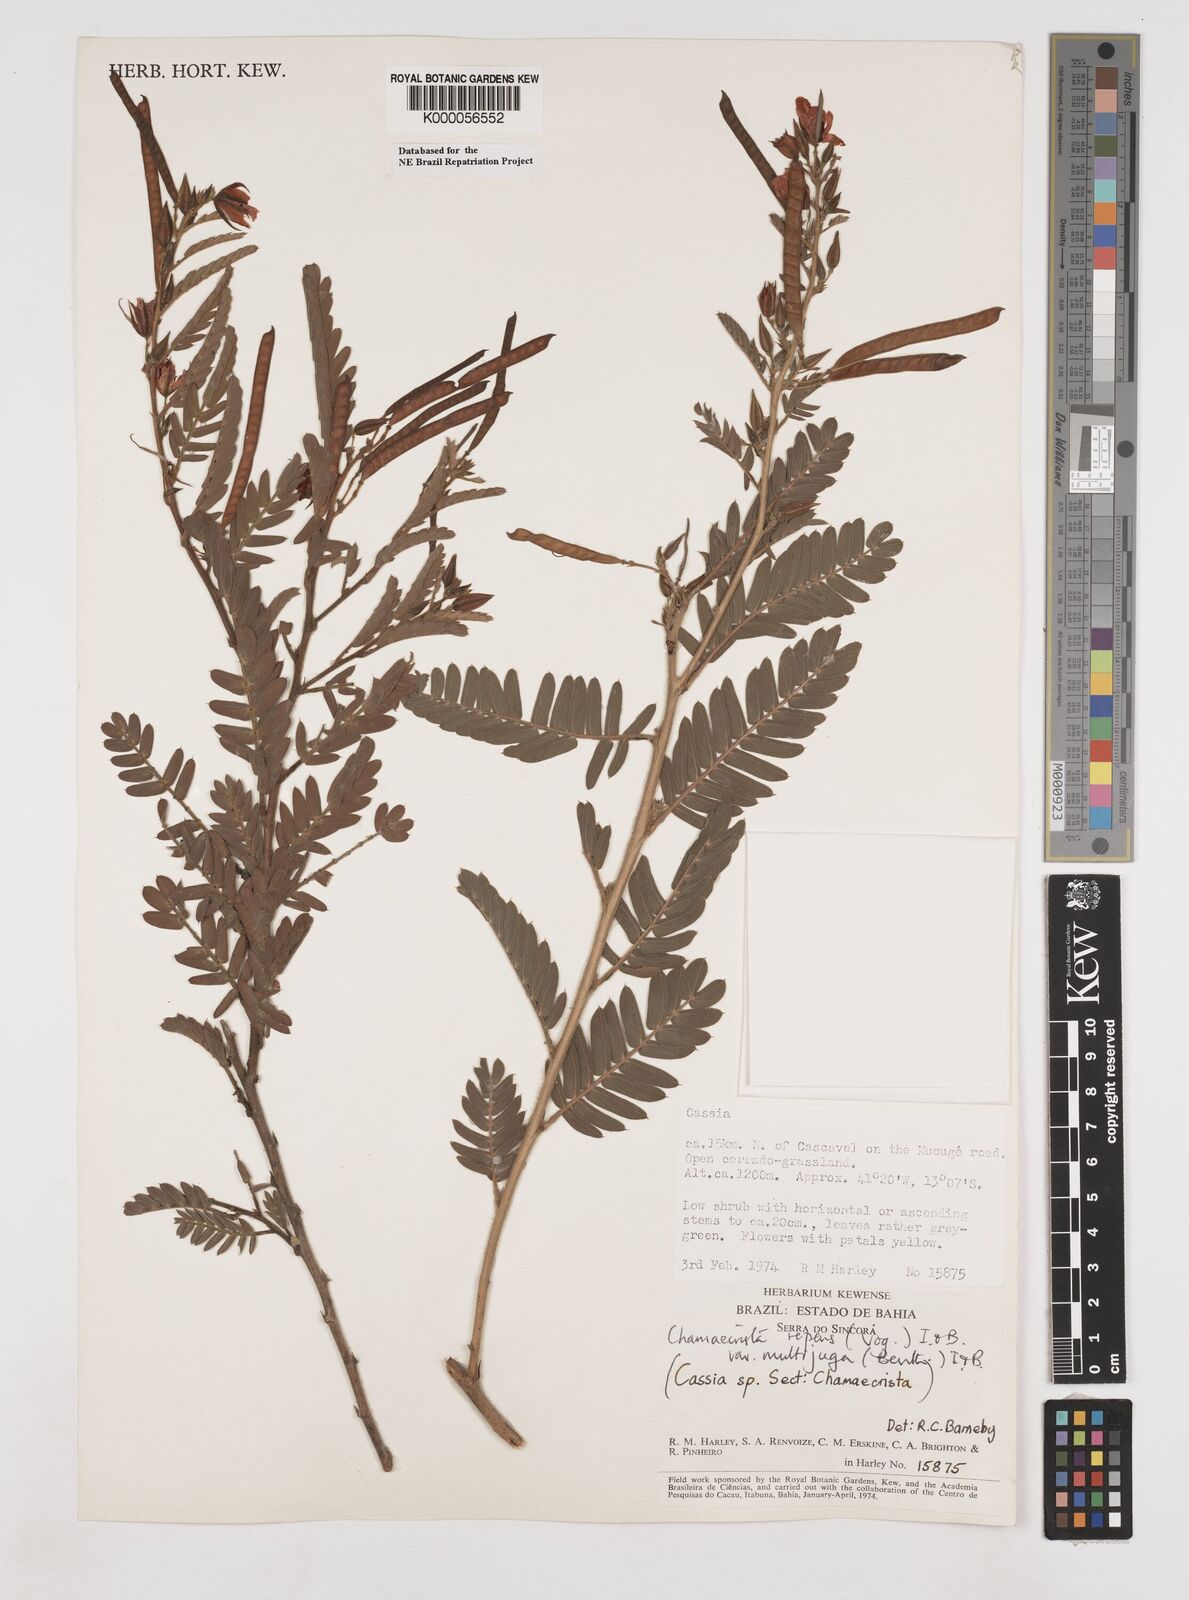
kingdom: Plantae
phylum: Tracheophyta
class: Magnoliopsida
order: Fabales
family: Fabaceae
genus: Chamaecrista
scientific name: Chamaecrista repens
